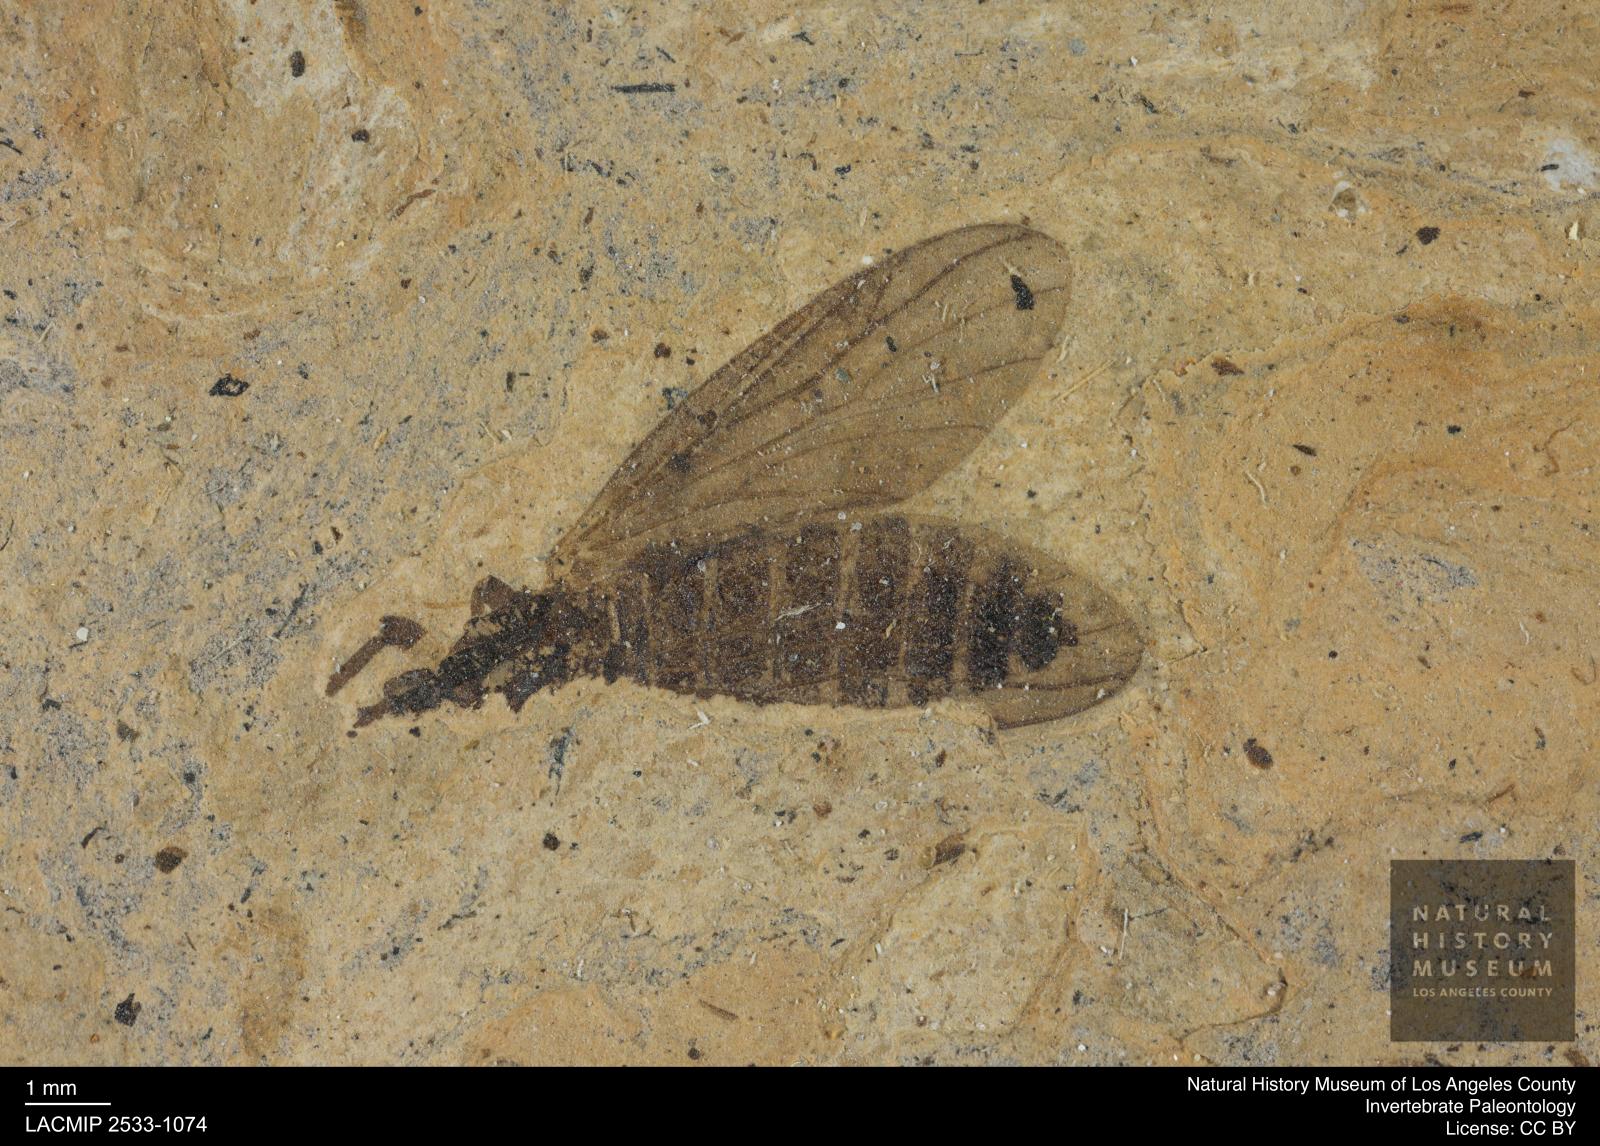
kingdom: Animalia
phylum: Arthropoda
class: Insecta
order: Diptera
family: Bibionidae
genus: Plecia
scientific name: Plecia hypogaea
